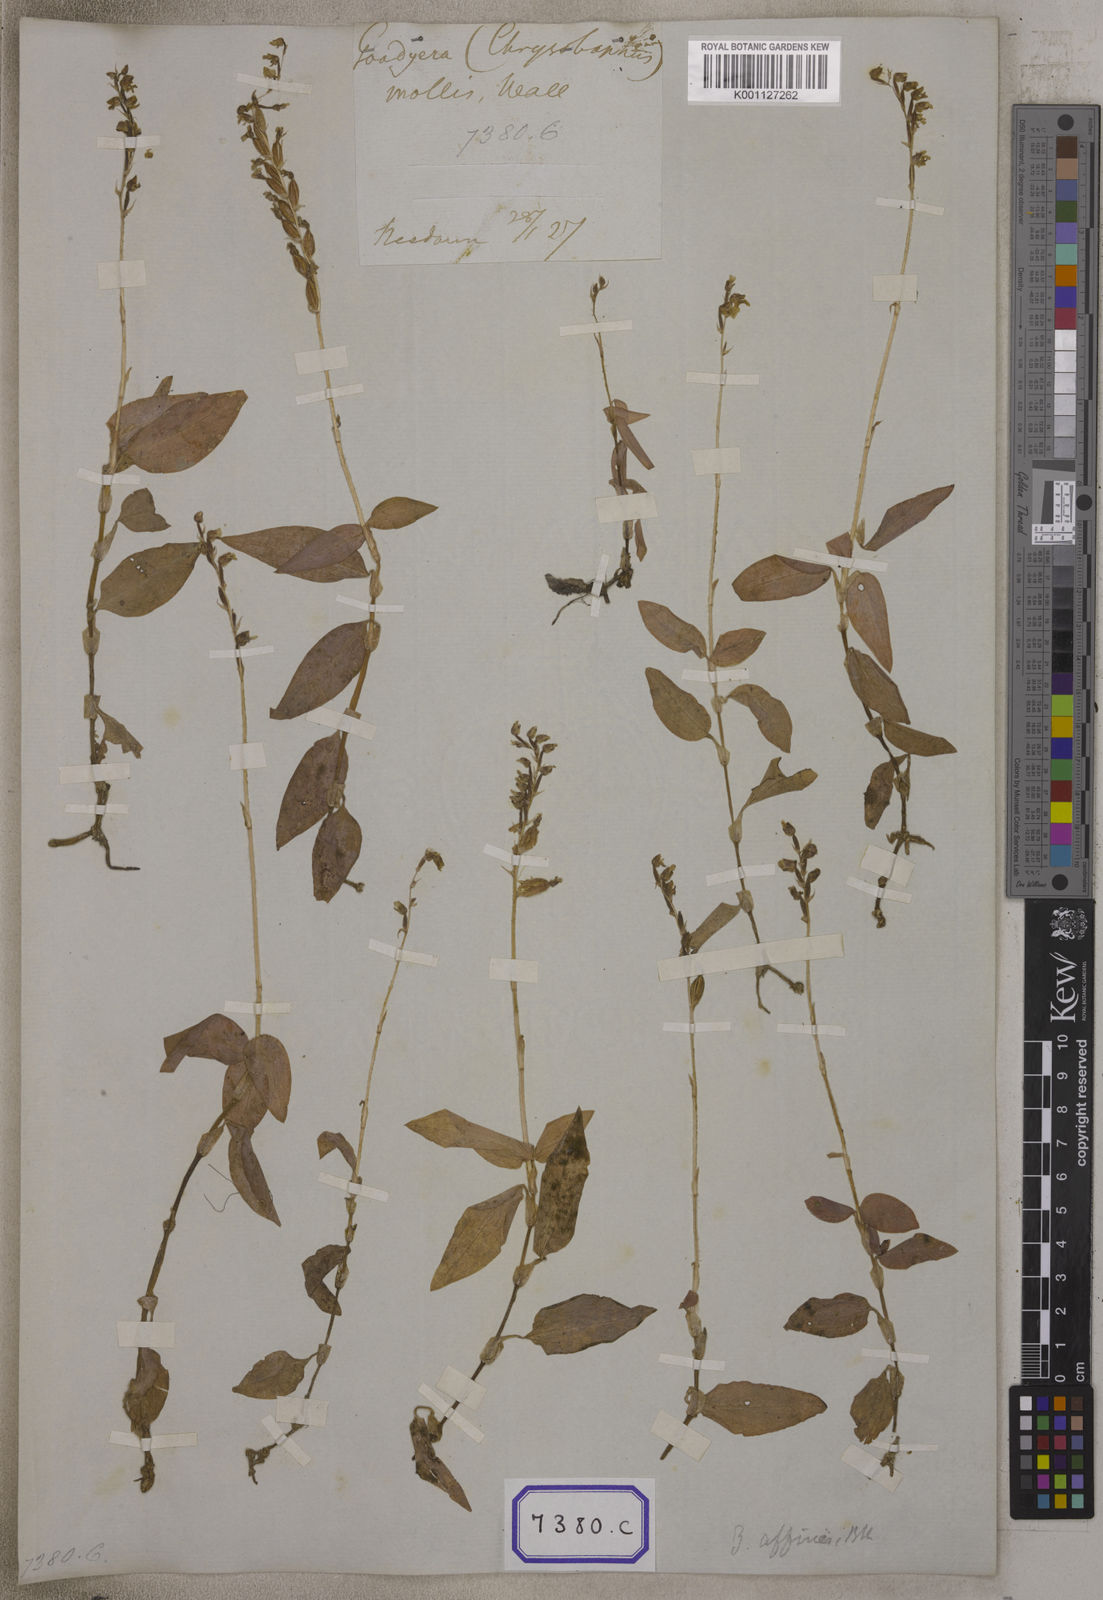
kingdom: Plantae
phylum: Tracheophyta
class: Liliopsida
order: Asparagales
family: Orchidaceae
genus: Hetaeria
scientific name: Hetaeria
